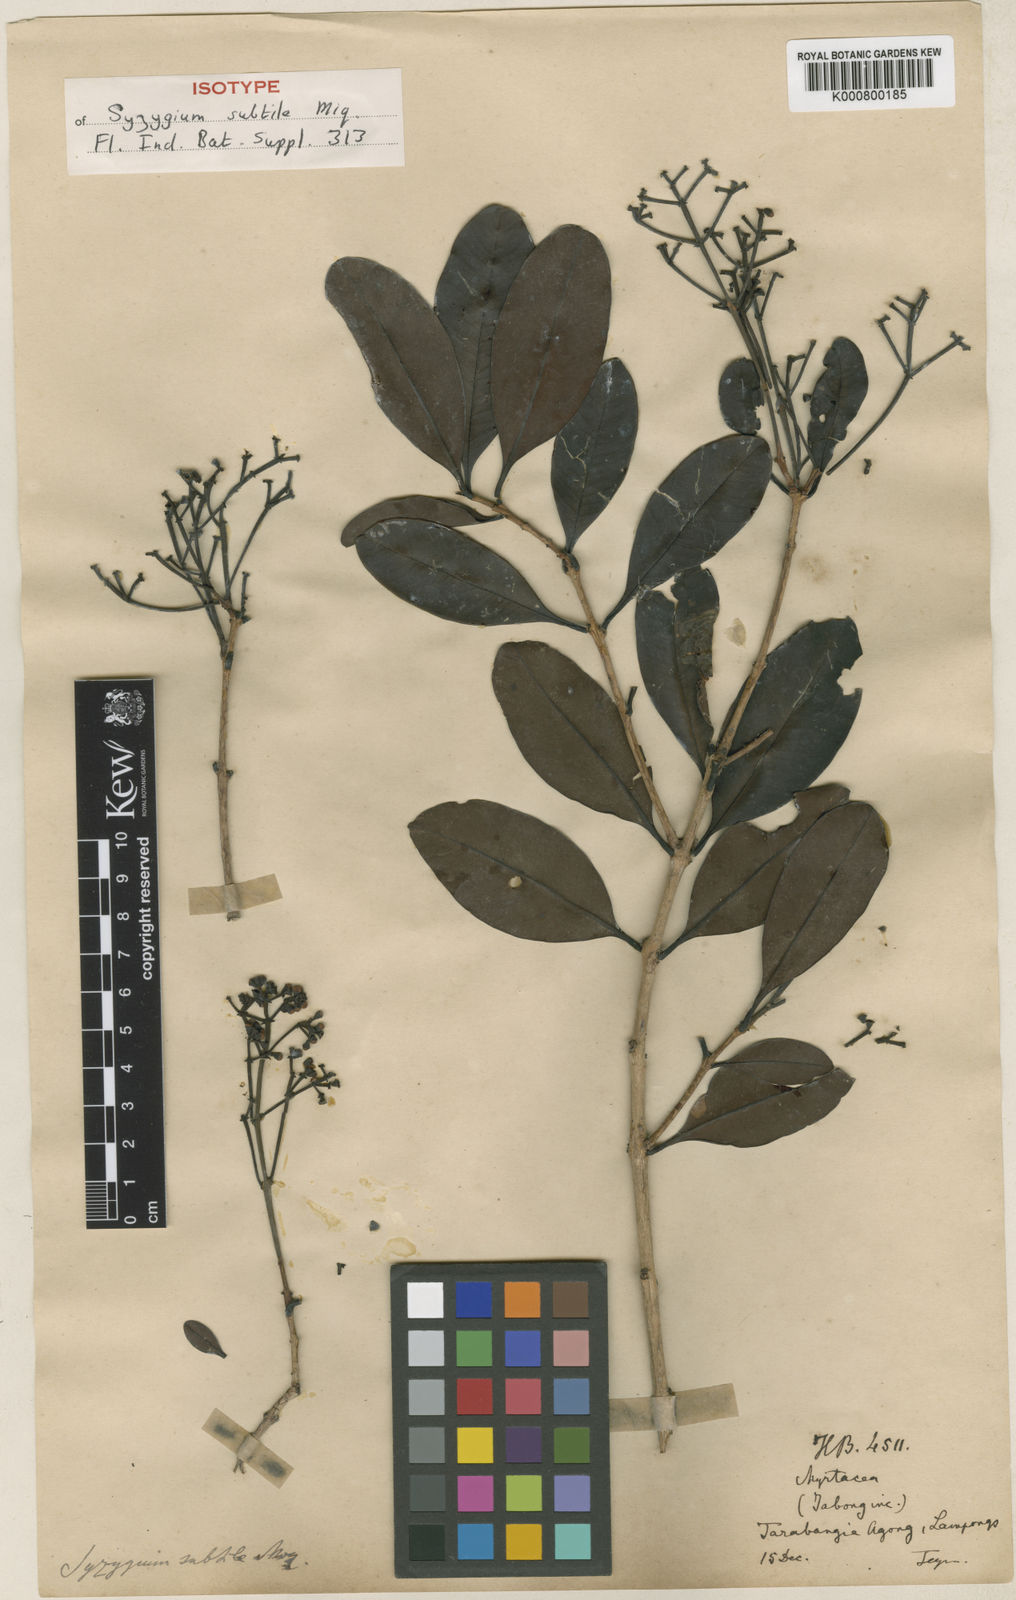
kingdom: Plantae
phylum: Tracheophyta
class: Magnoliopsida
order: Myrtales
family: Myrtaceae
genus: Syzygium
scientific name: Syzygium subtile
